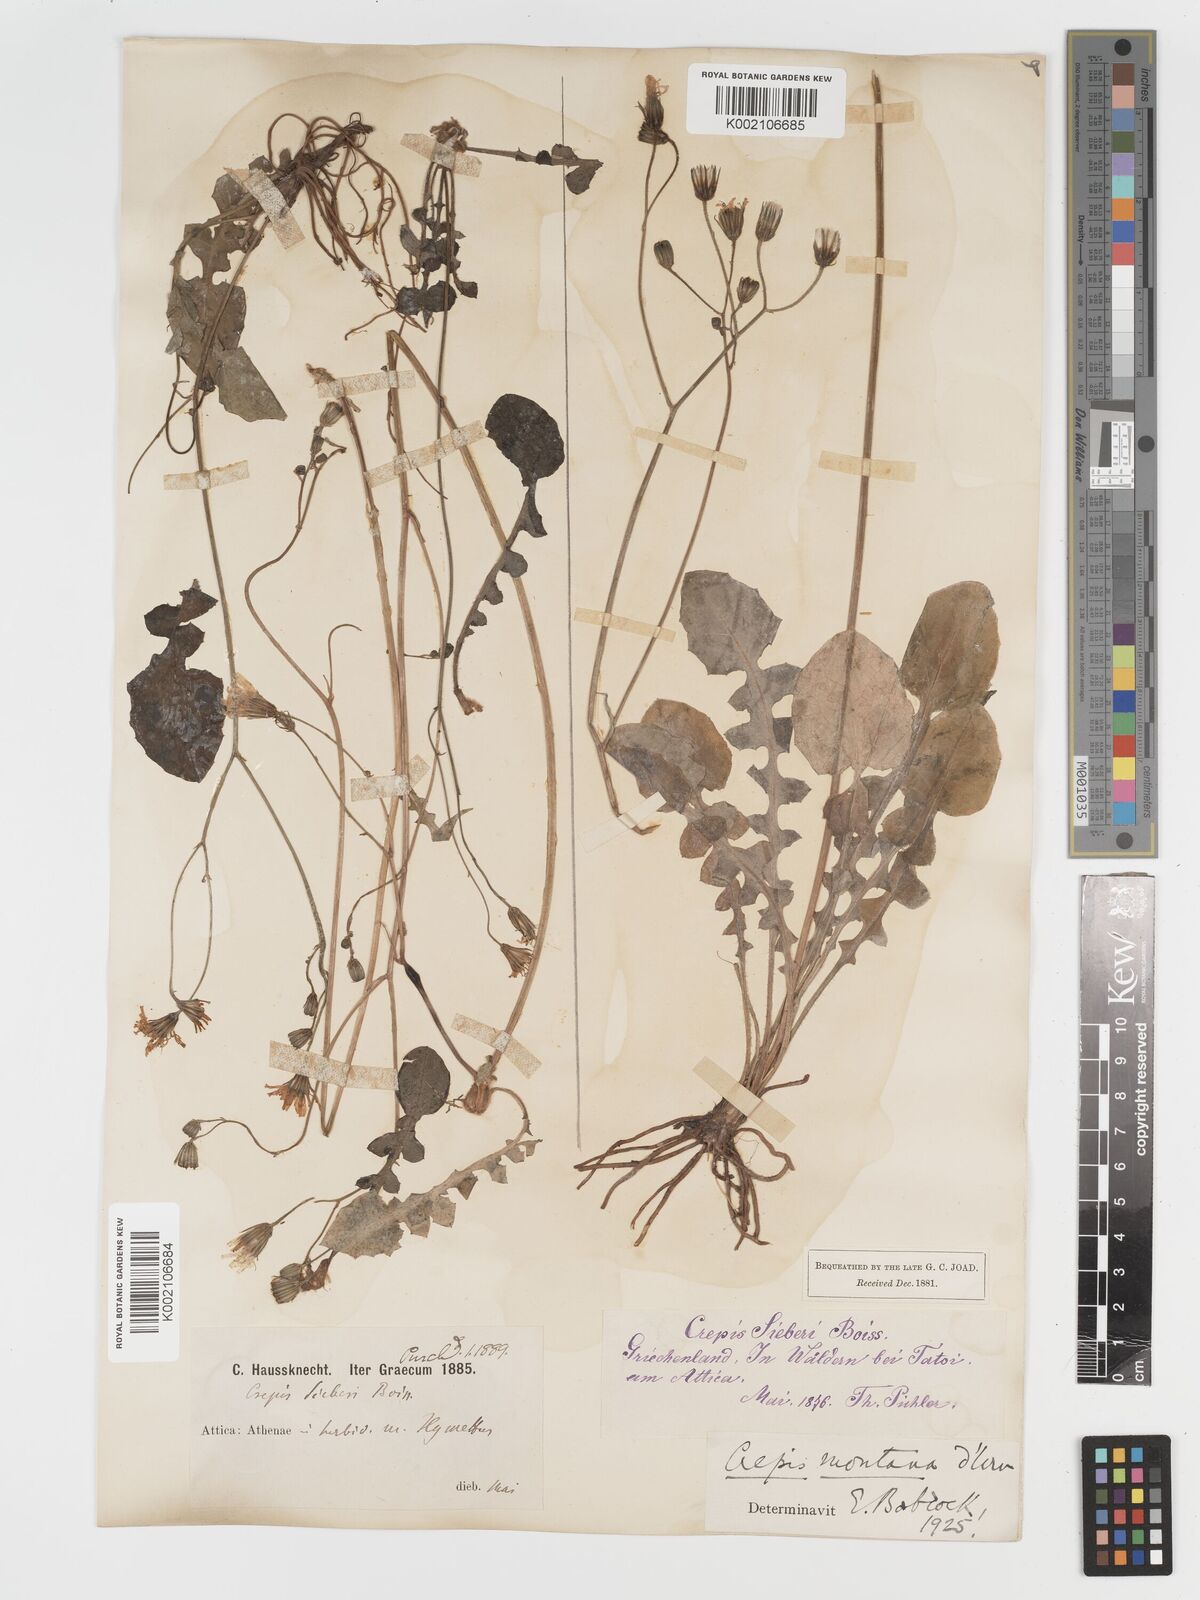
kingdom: Plantae
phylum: Tracheophyta
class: Magnoliopsida
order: Asterales
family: Asteraceae
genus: Crepis
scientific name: Crepis
